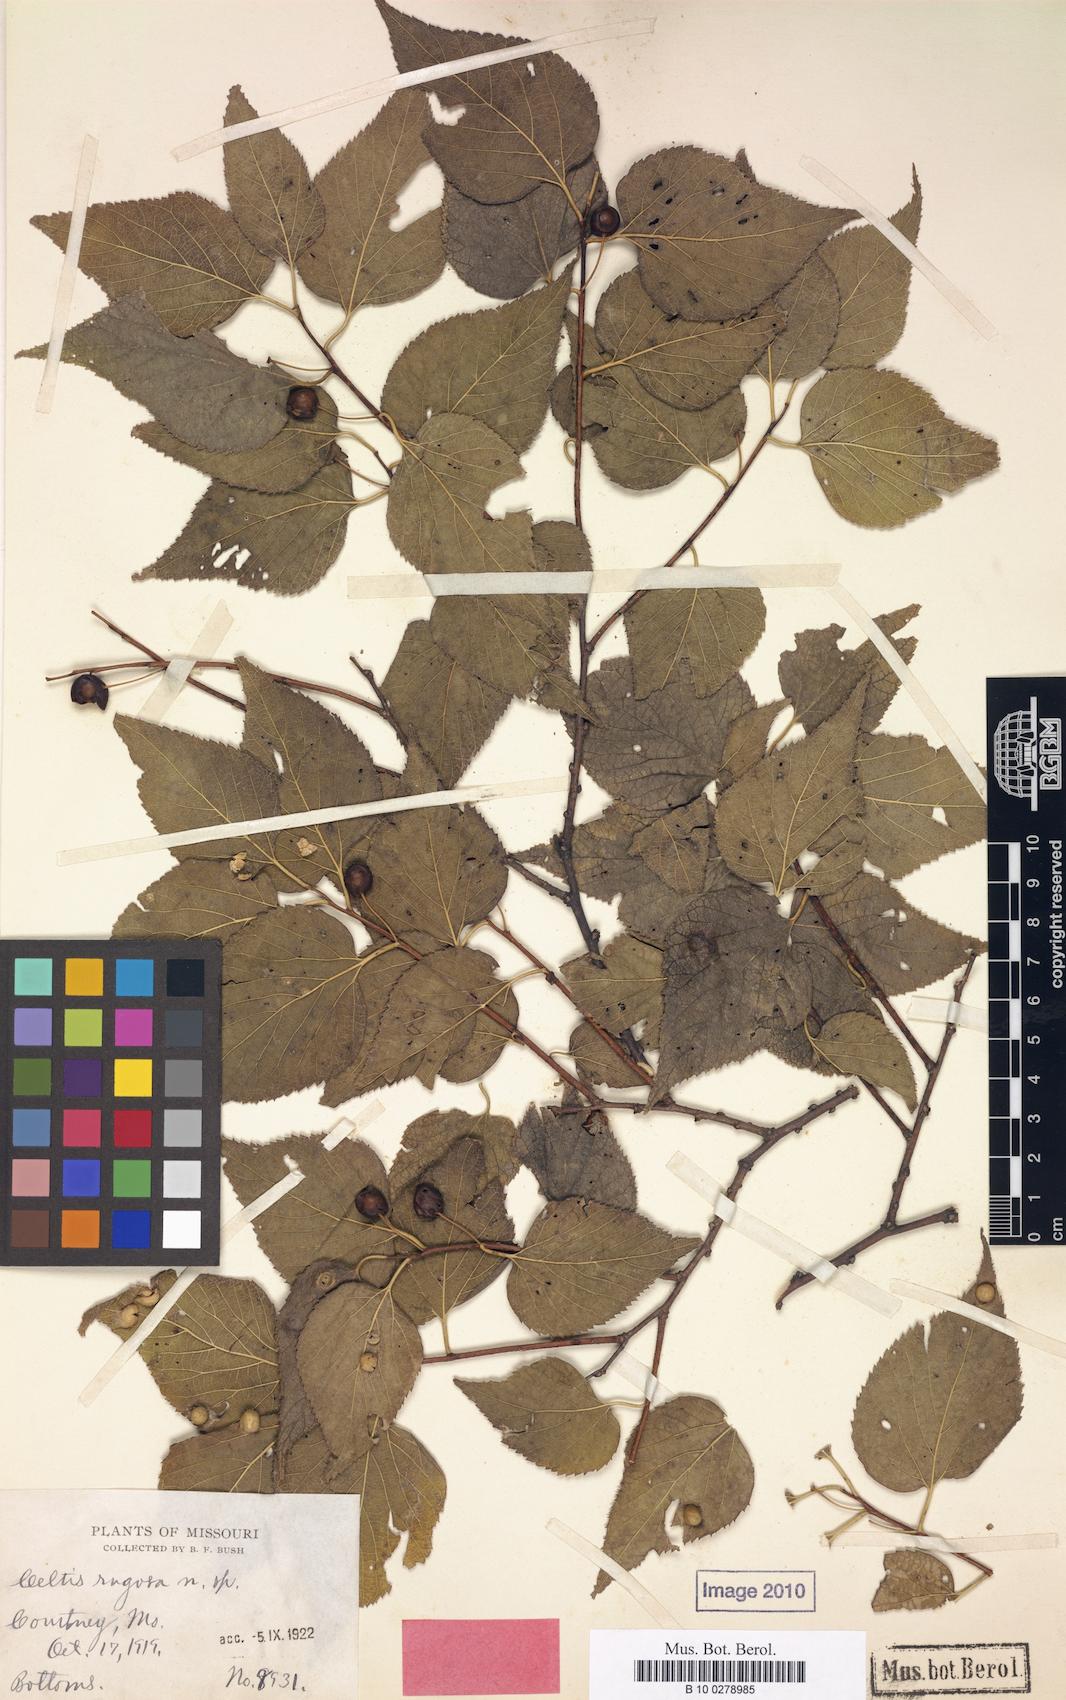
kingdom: Plantae
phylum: Tracheophyta
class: Magnoliopsida
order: Rosales
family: Cannabaceae
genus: Celtis
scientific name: Celtis reticulata
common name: Netleaf hackberry
